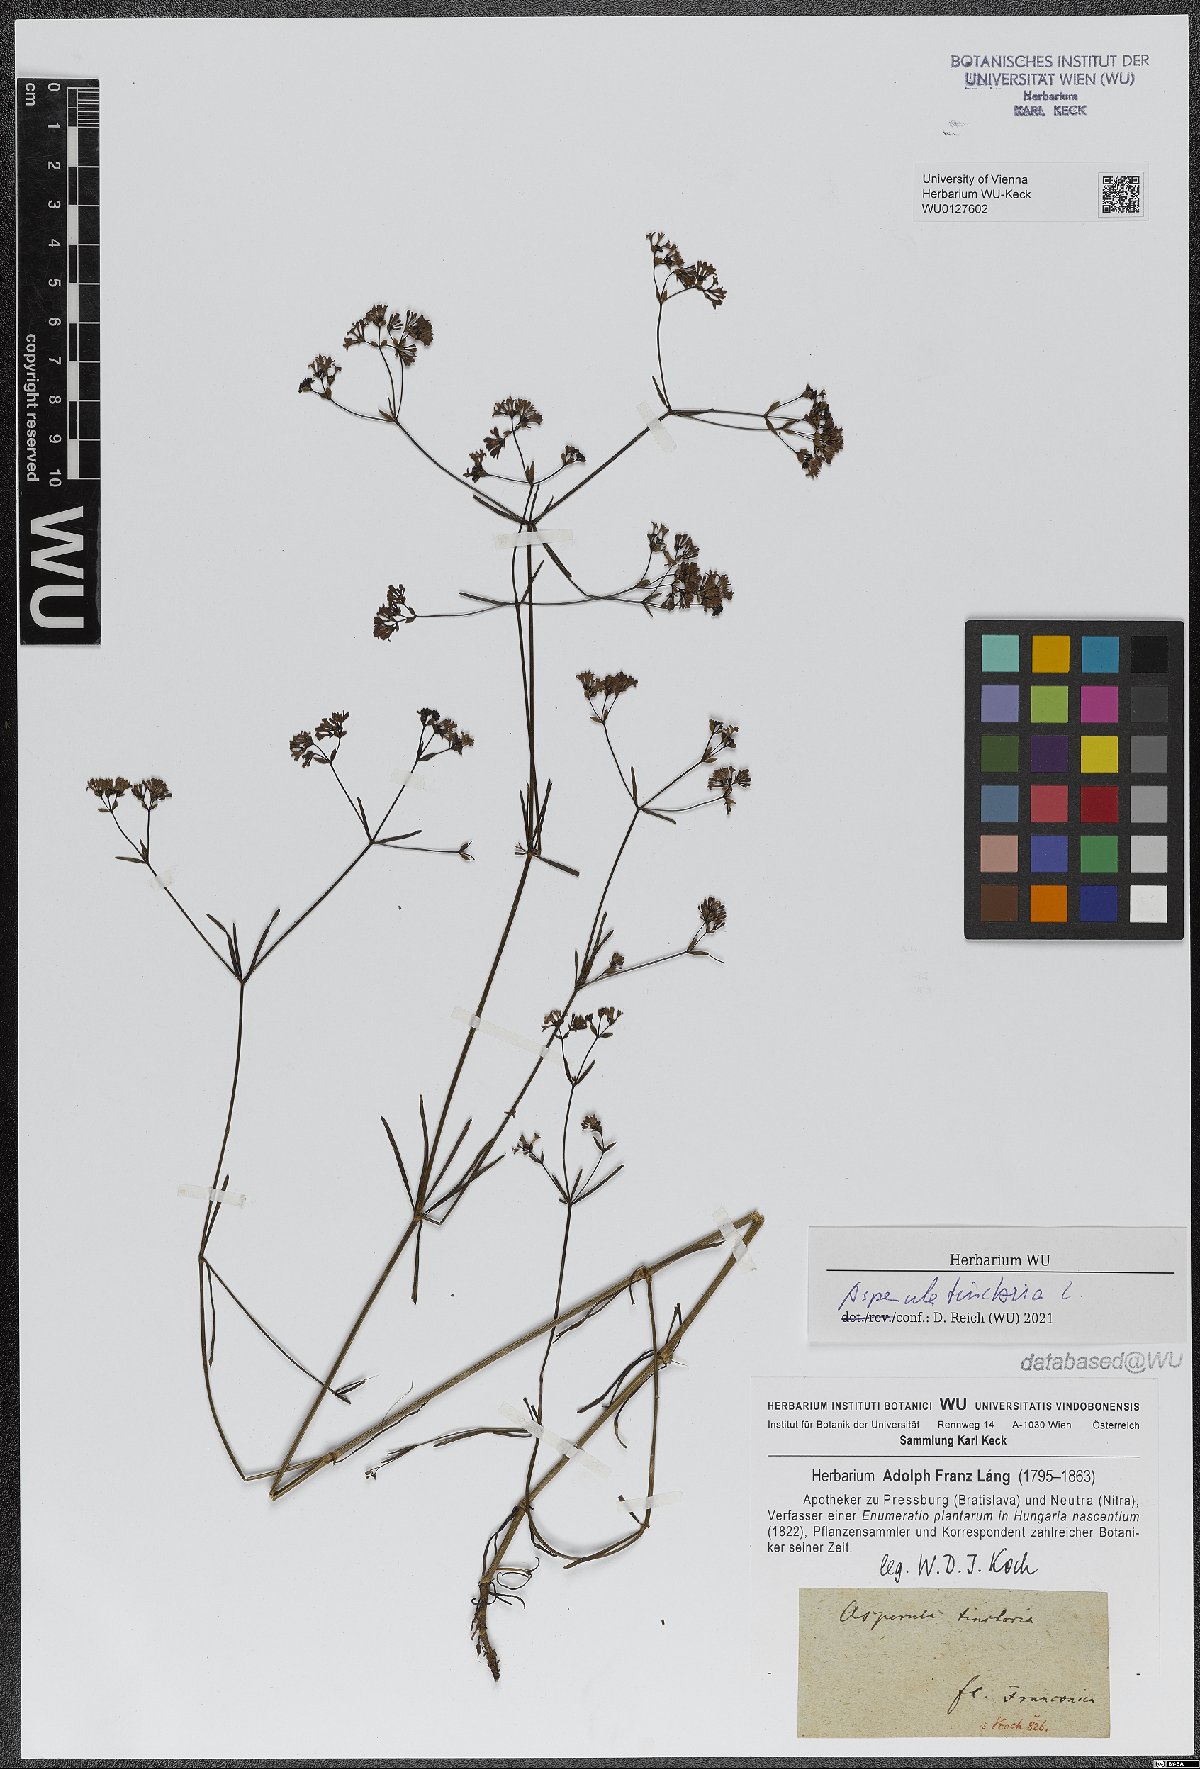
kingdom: Plantae
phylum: Tracheophyta
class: Magnoliopsida
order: Gentianales
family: Rubiaceae
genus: Asperula
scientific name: Asperula tinctoria
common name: Dyer's woodruff
